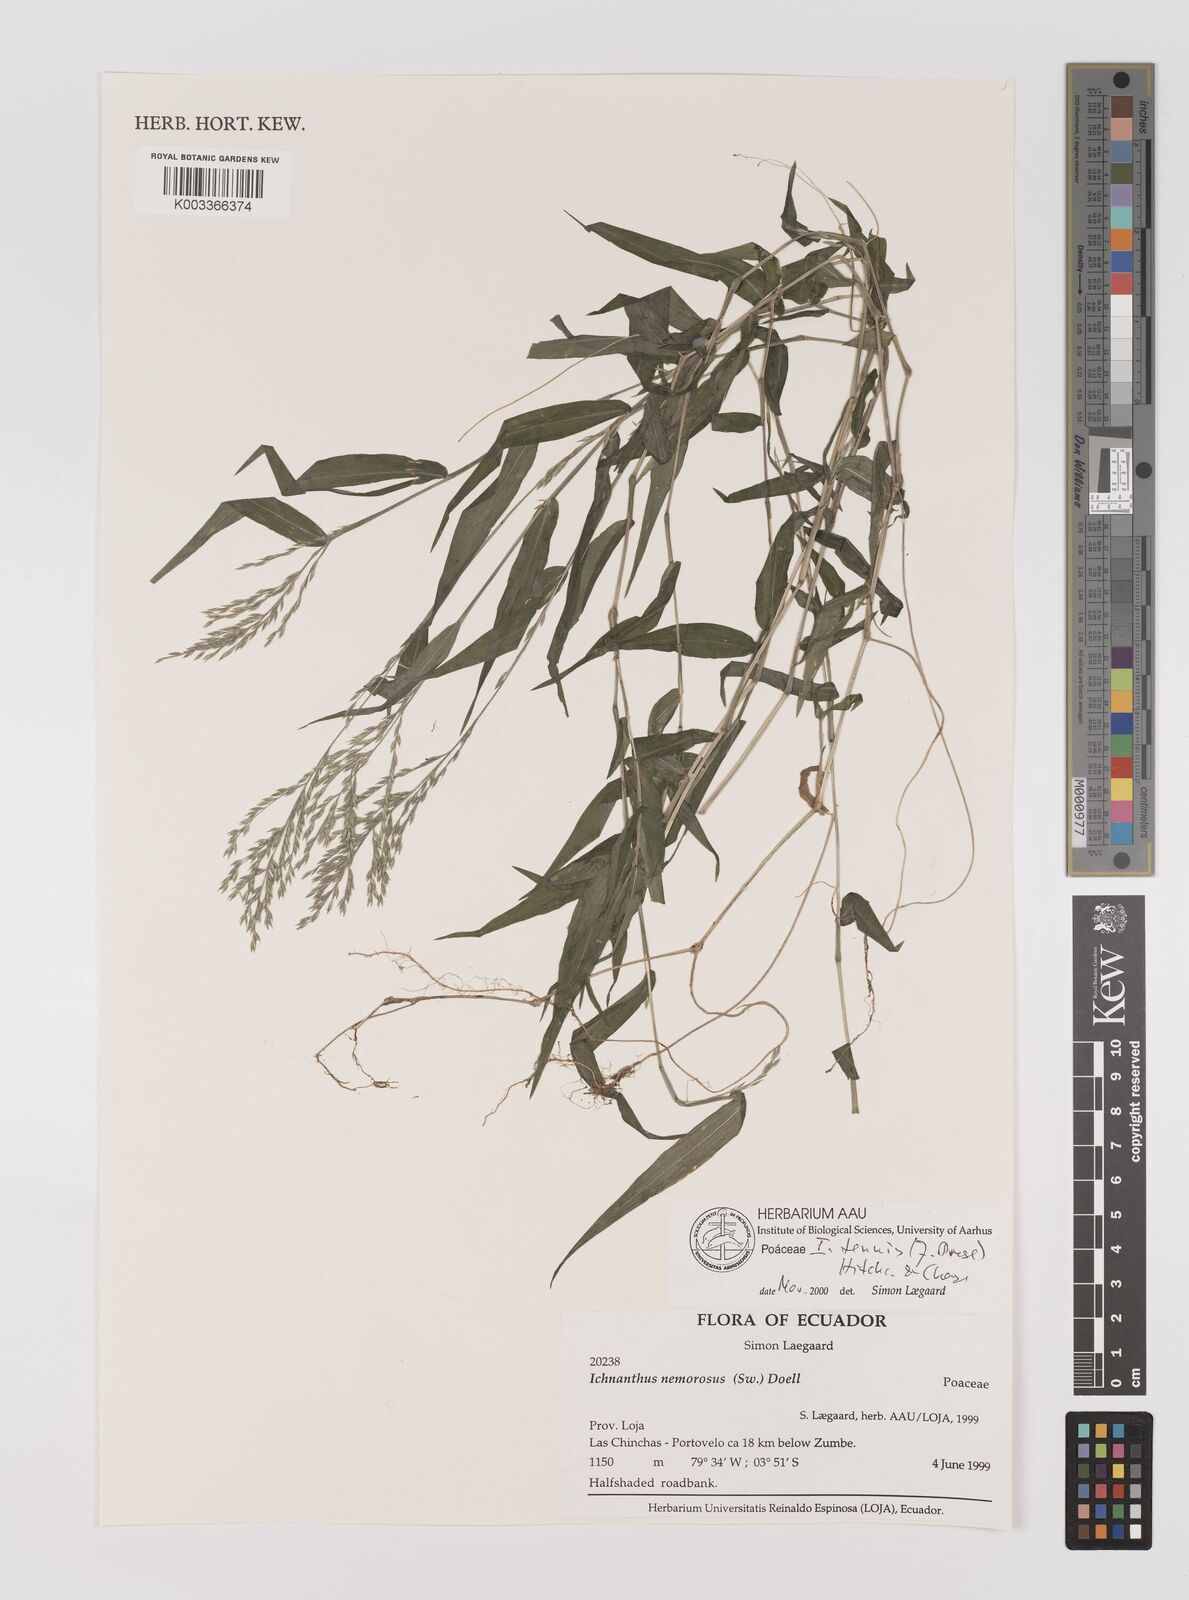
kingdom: Plantae
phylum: Tracheophyta
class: Liliopsida
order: Poales
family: Poaceae
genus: Ichnanthus
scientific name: Ichnanthus tenuis
